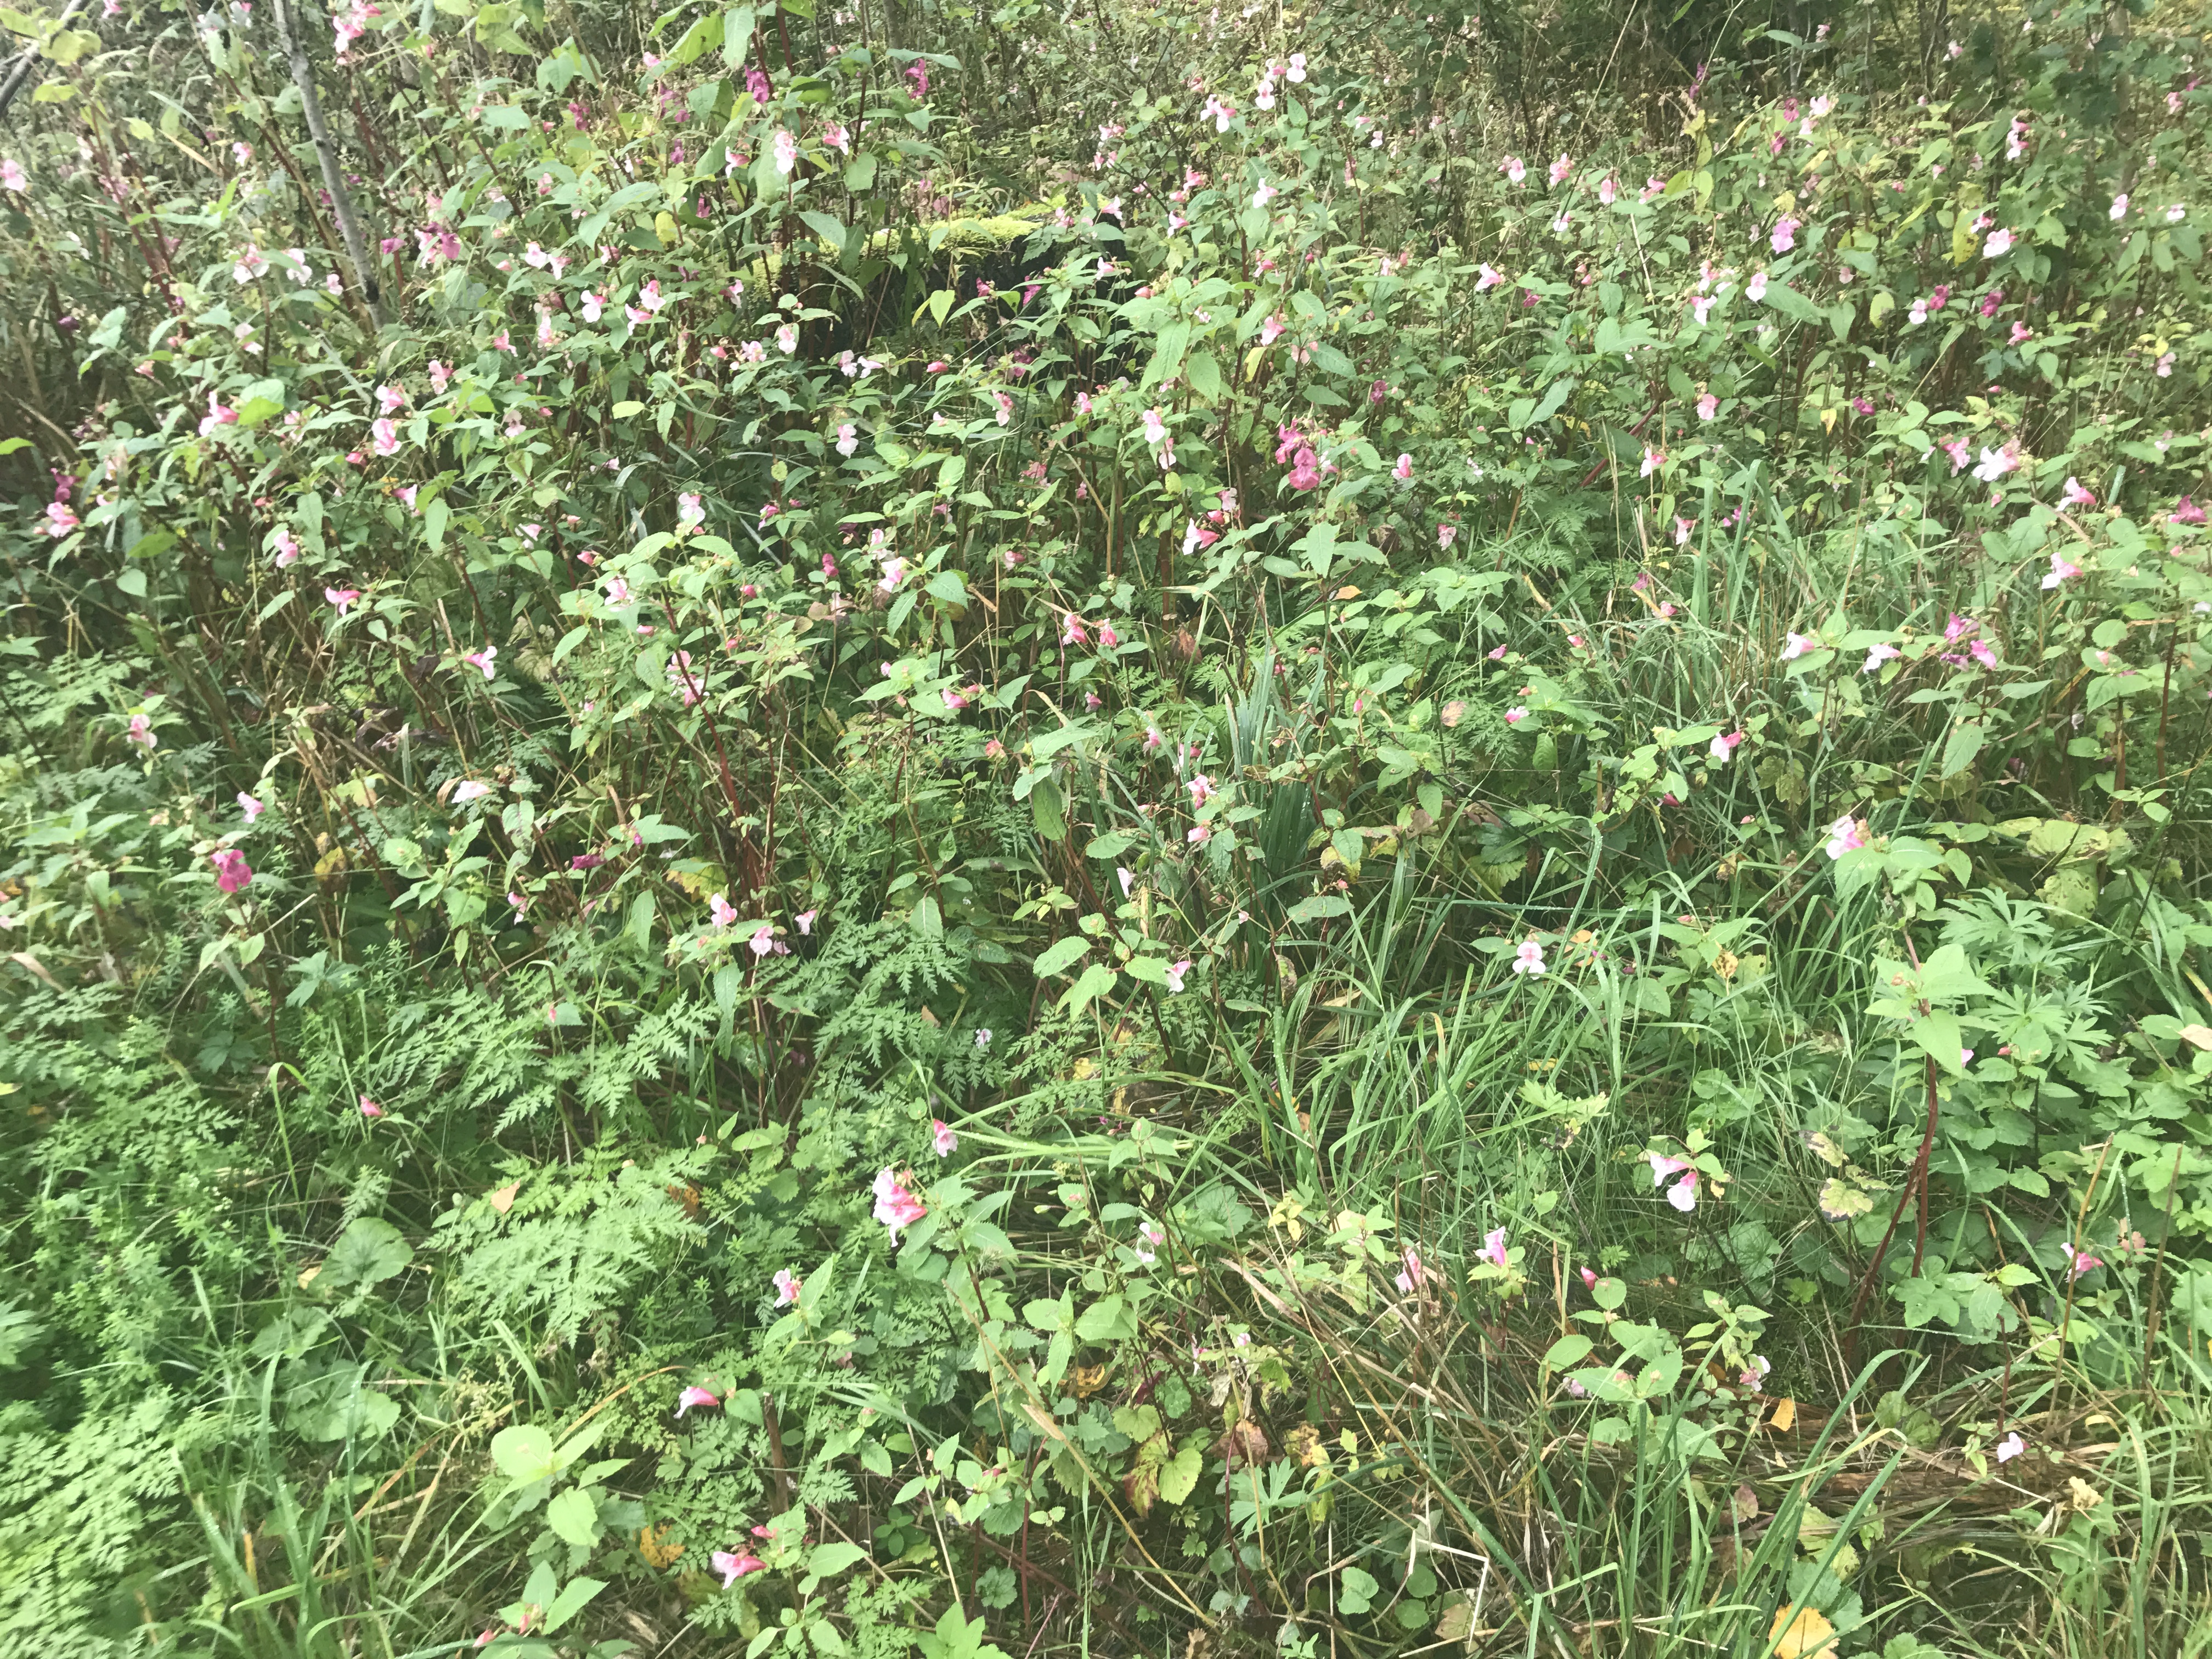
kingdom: Plantae
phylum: Tracheophyta
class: Magnoliopsida
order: Ericales
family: Balsaminaceae
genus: Impatiens
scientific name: Impatiens glandulifera
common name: Himalayan balsam
